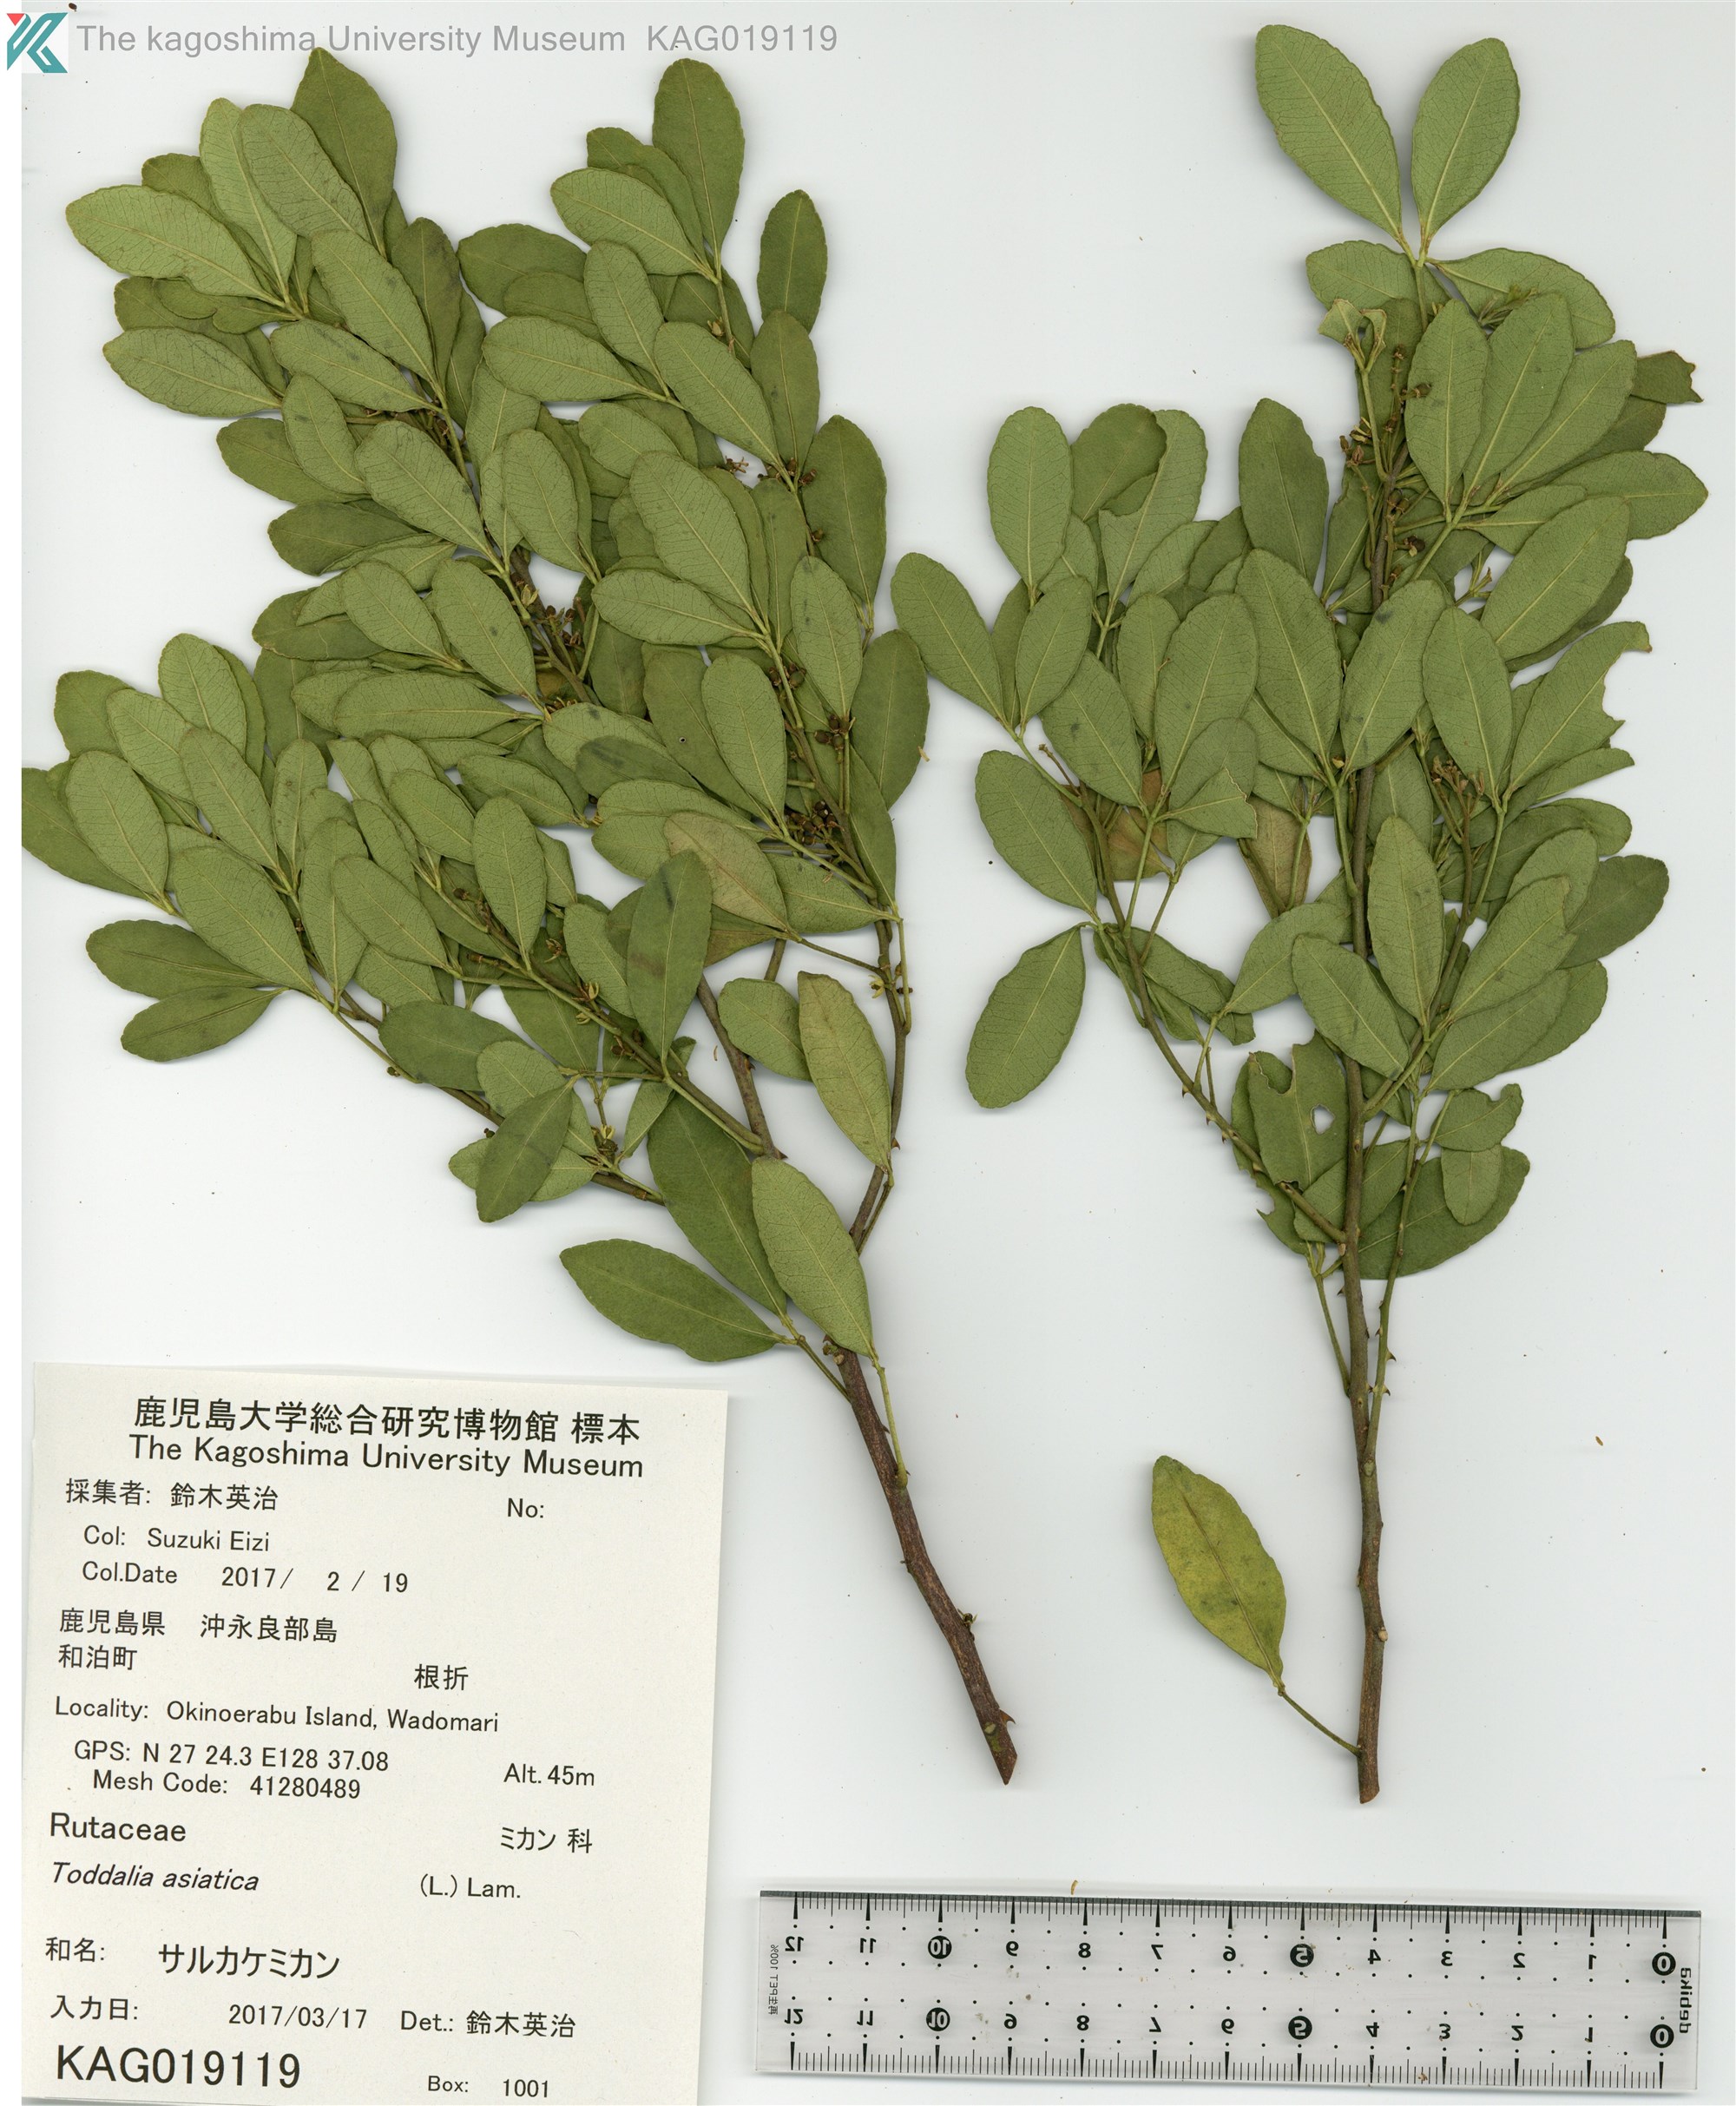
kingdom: Plantae
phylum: Tracheophyta
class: Magnoliopsida
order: Sapindales
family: Rutaceae
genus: Zanthoxylum
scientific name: Zanthoxylum asiaticum
